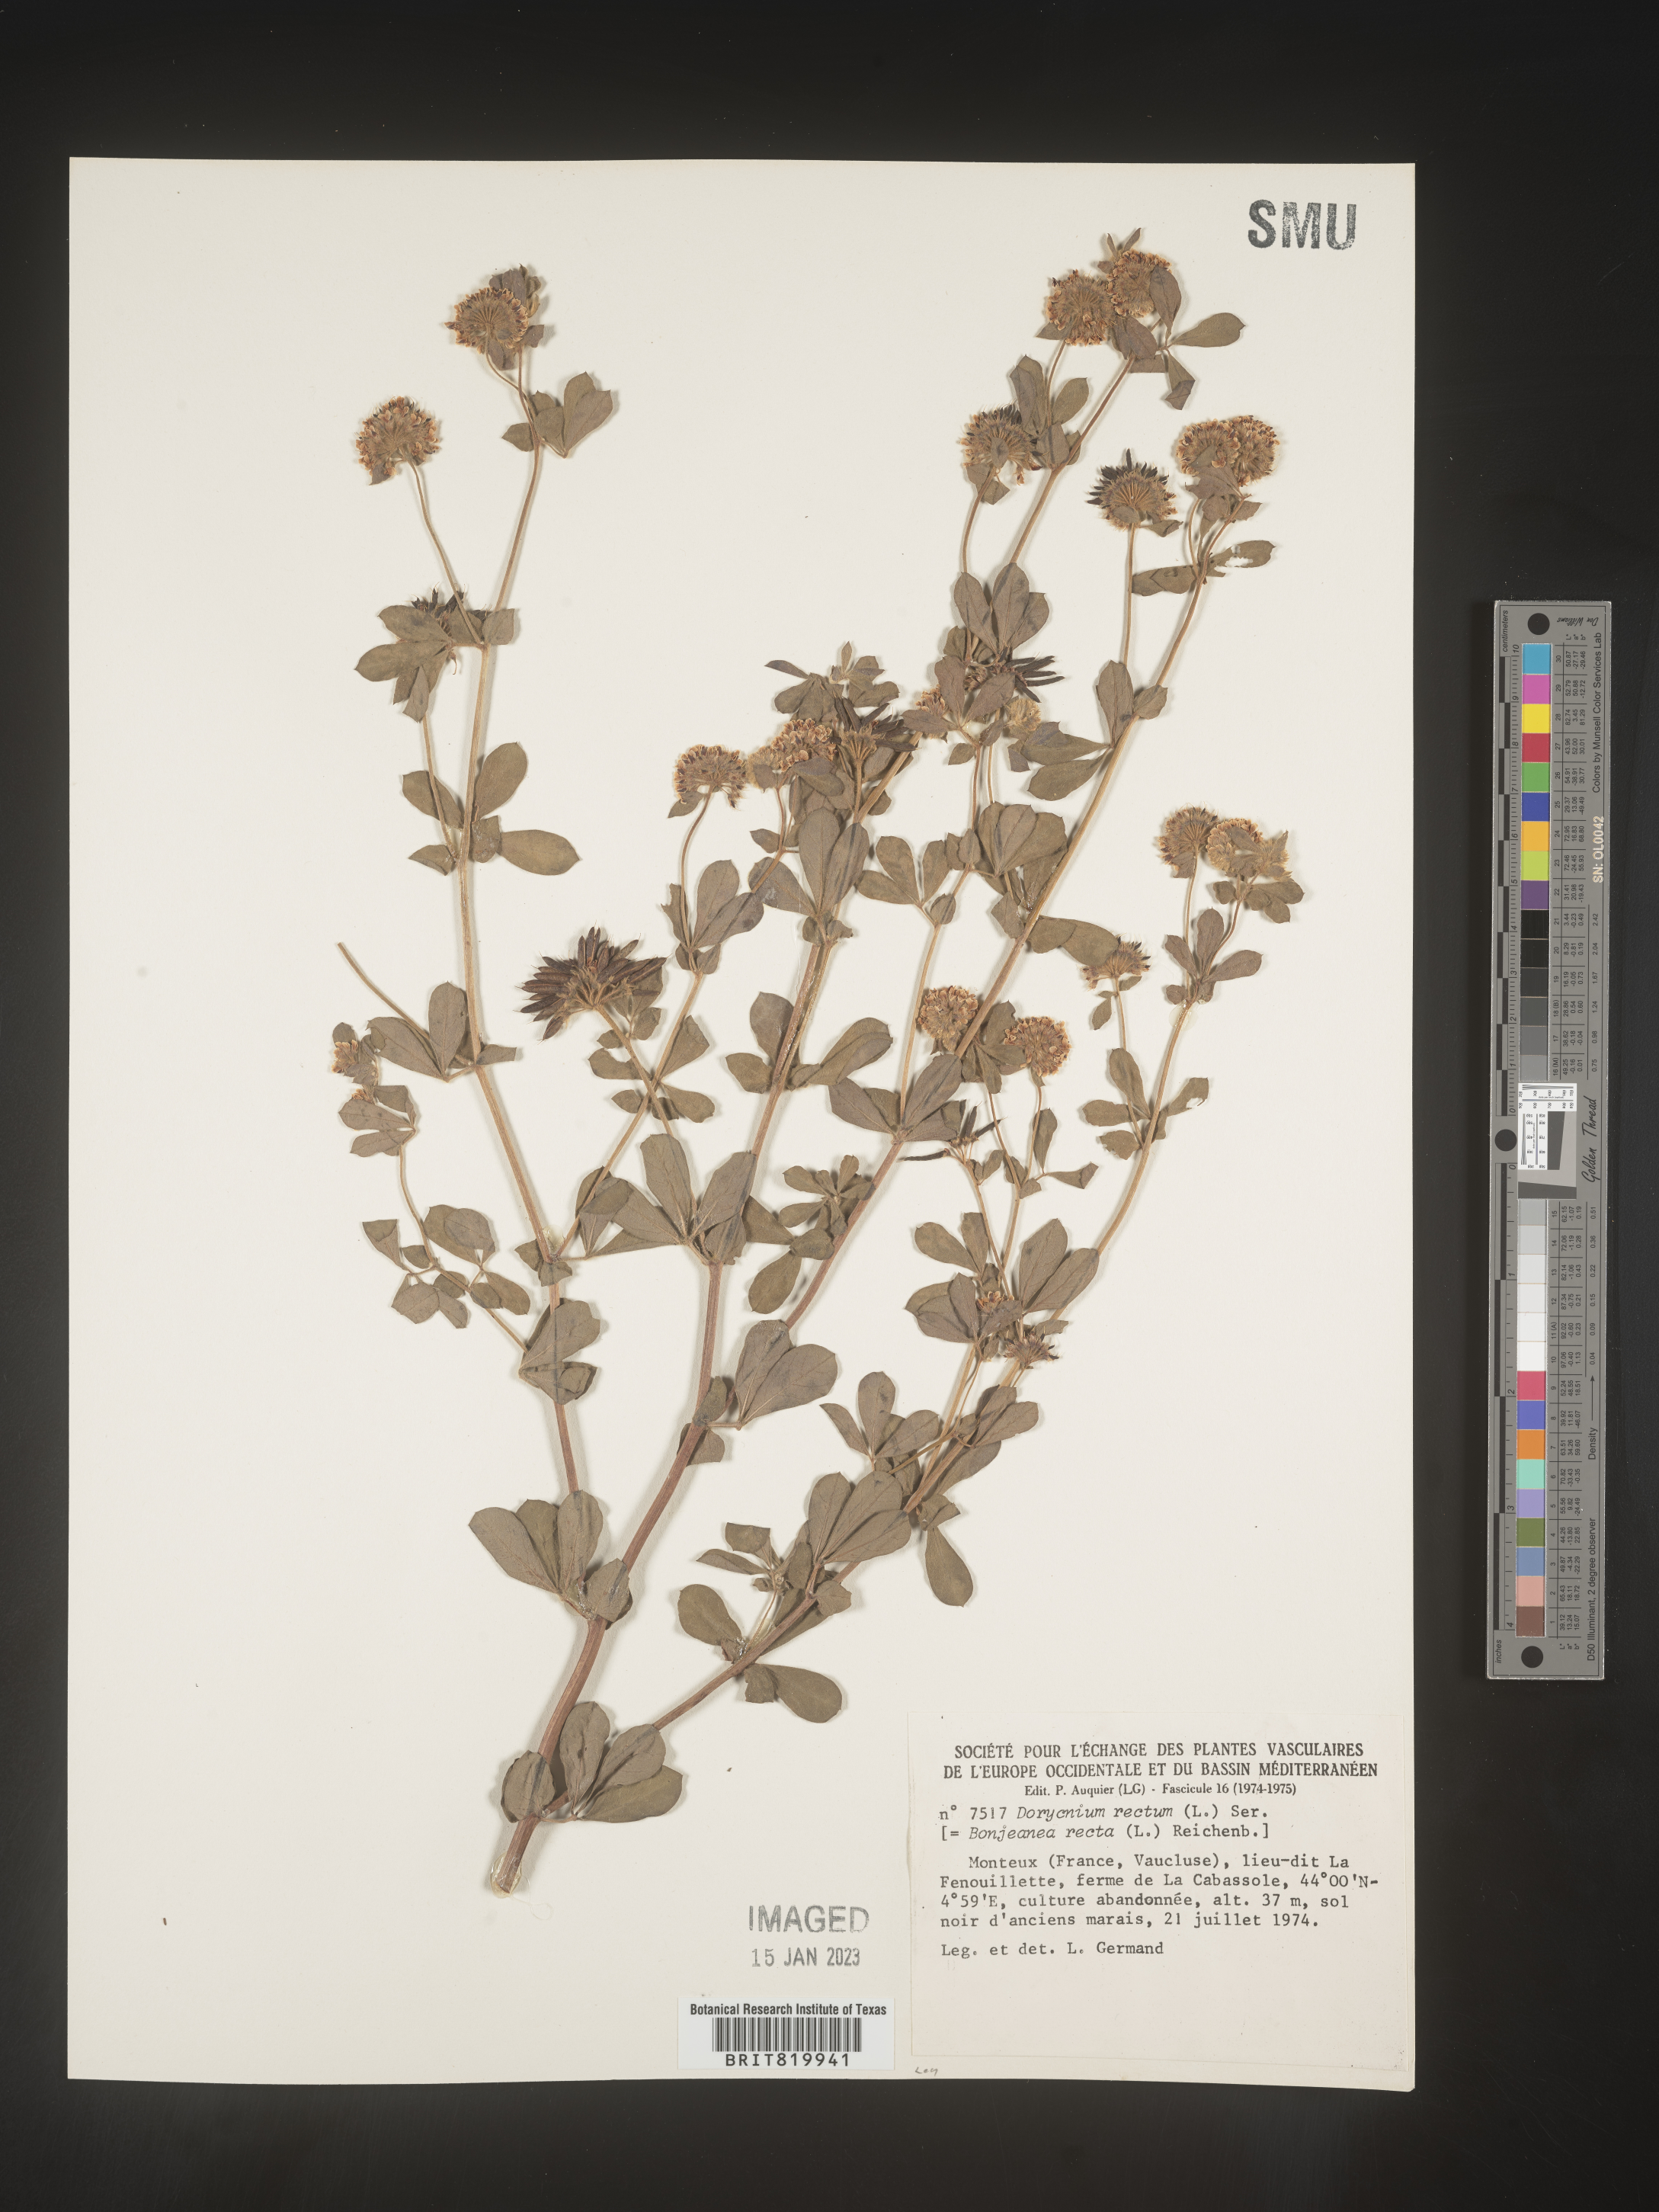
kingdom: Plantae
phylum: Tracheophyta
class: Magnoliopsida
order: Fabales
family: Fabaceae
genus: Lotus
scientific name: Lotus
